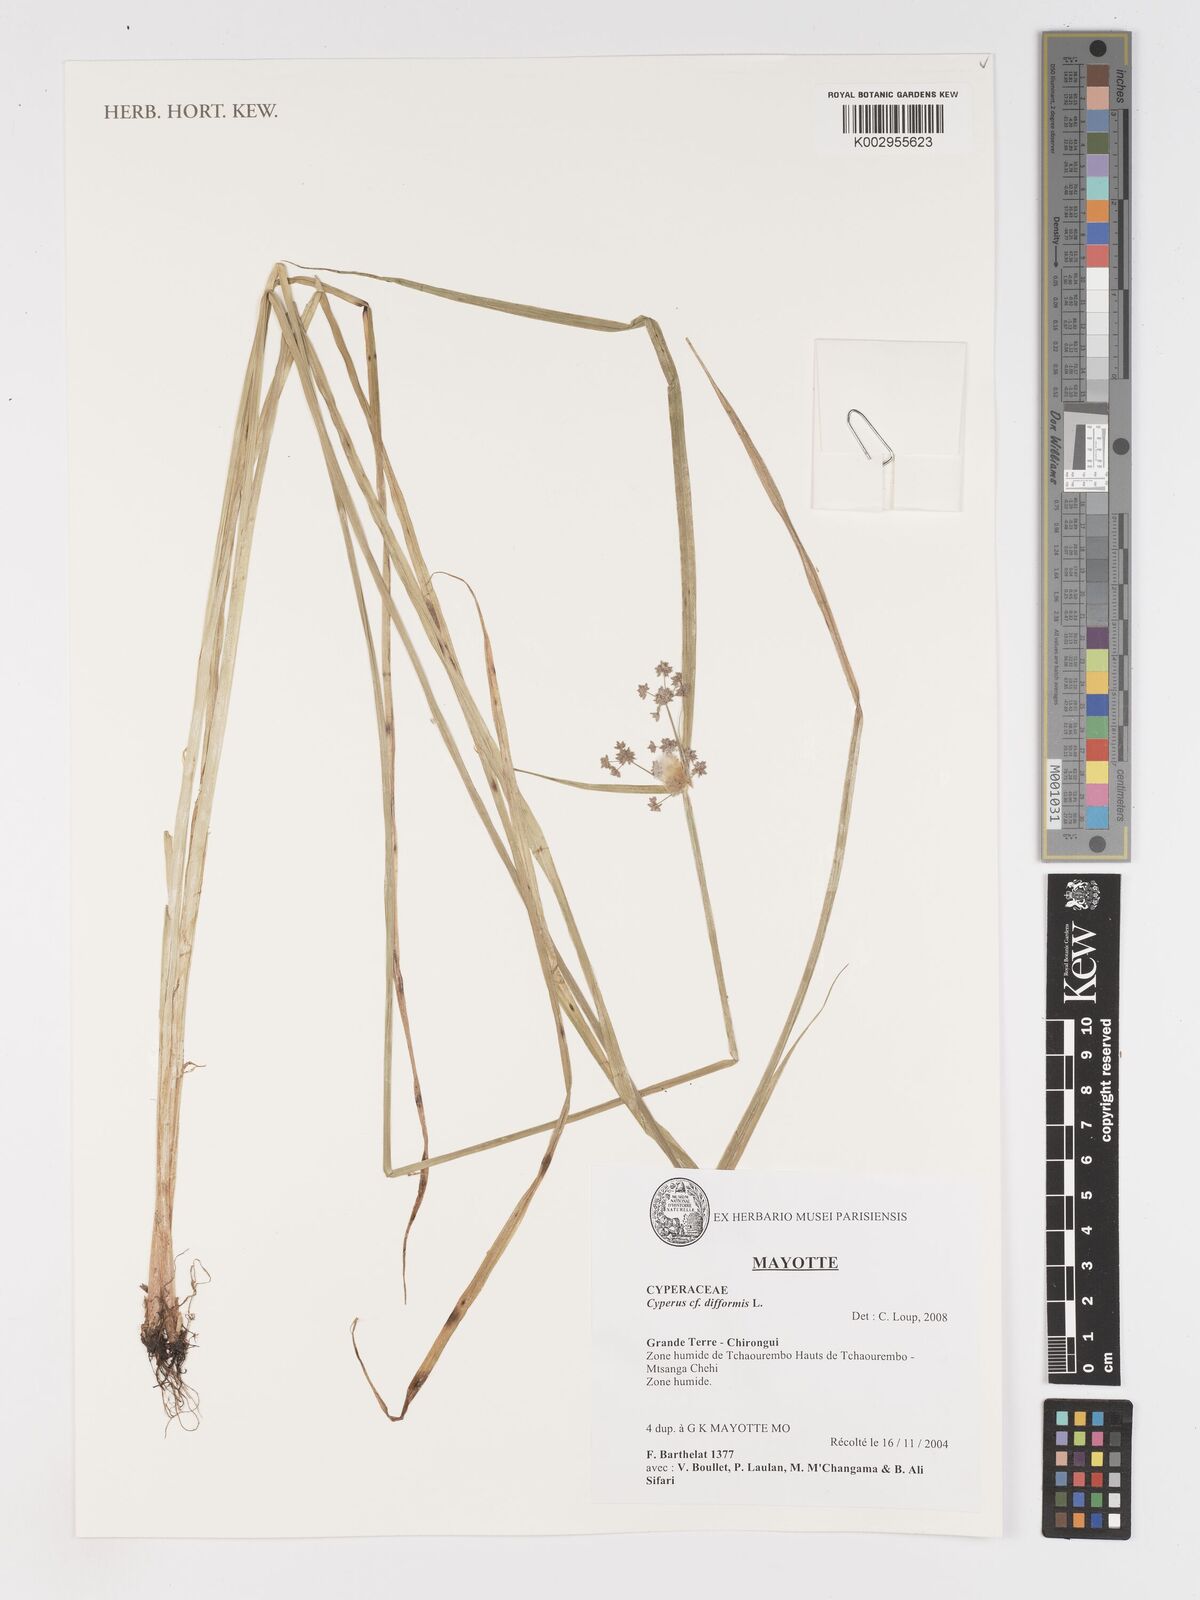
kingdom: Plantae
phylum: Tracheophyta
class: Liliopsida
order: Poales
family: Cyperaceae
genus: Cyperus
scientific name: Cyperus difformis
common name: Variable flatsedge
